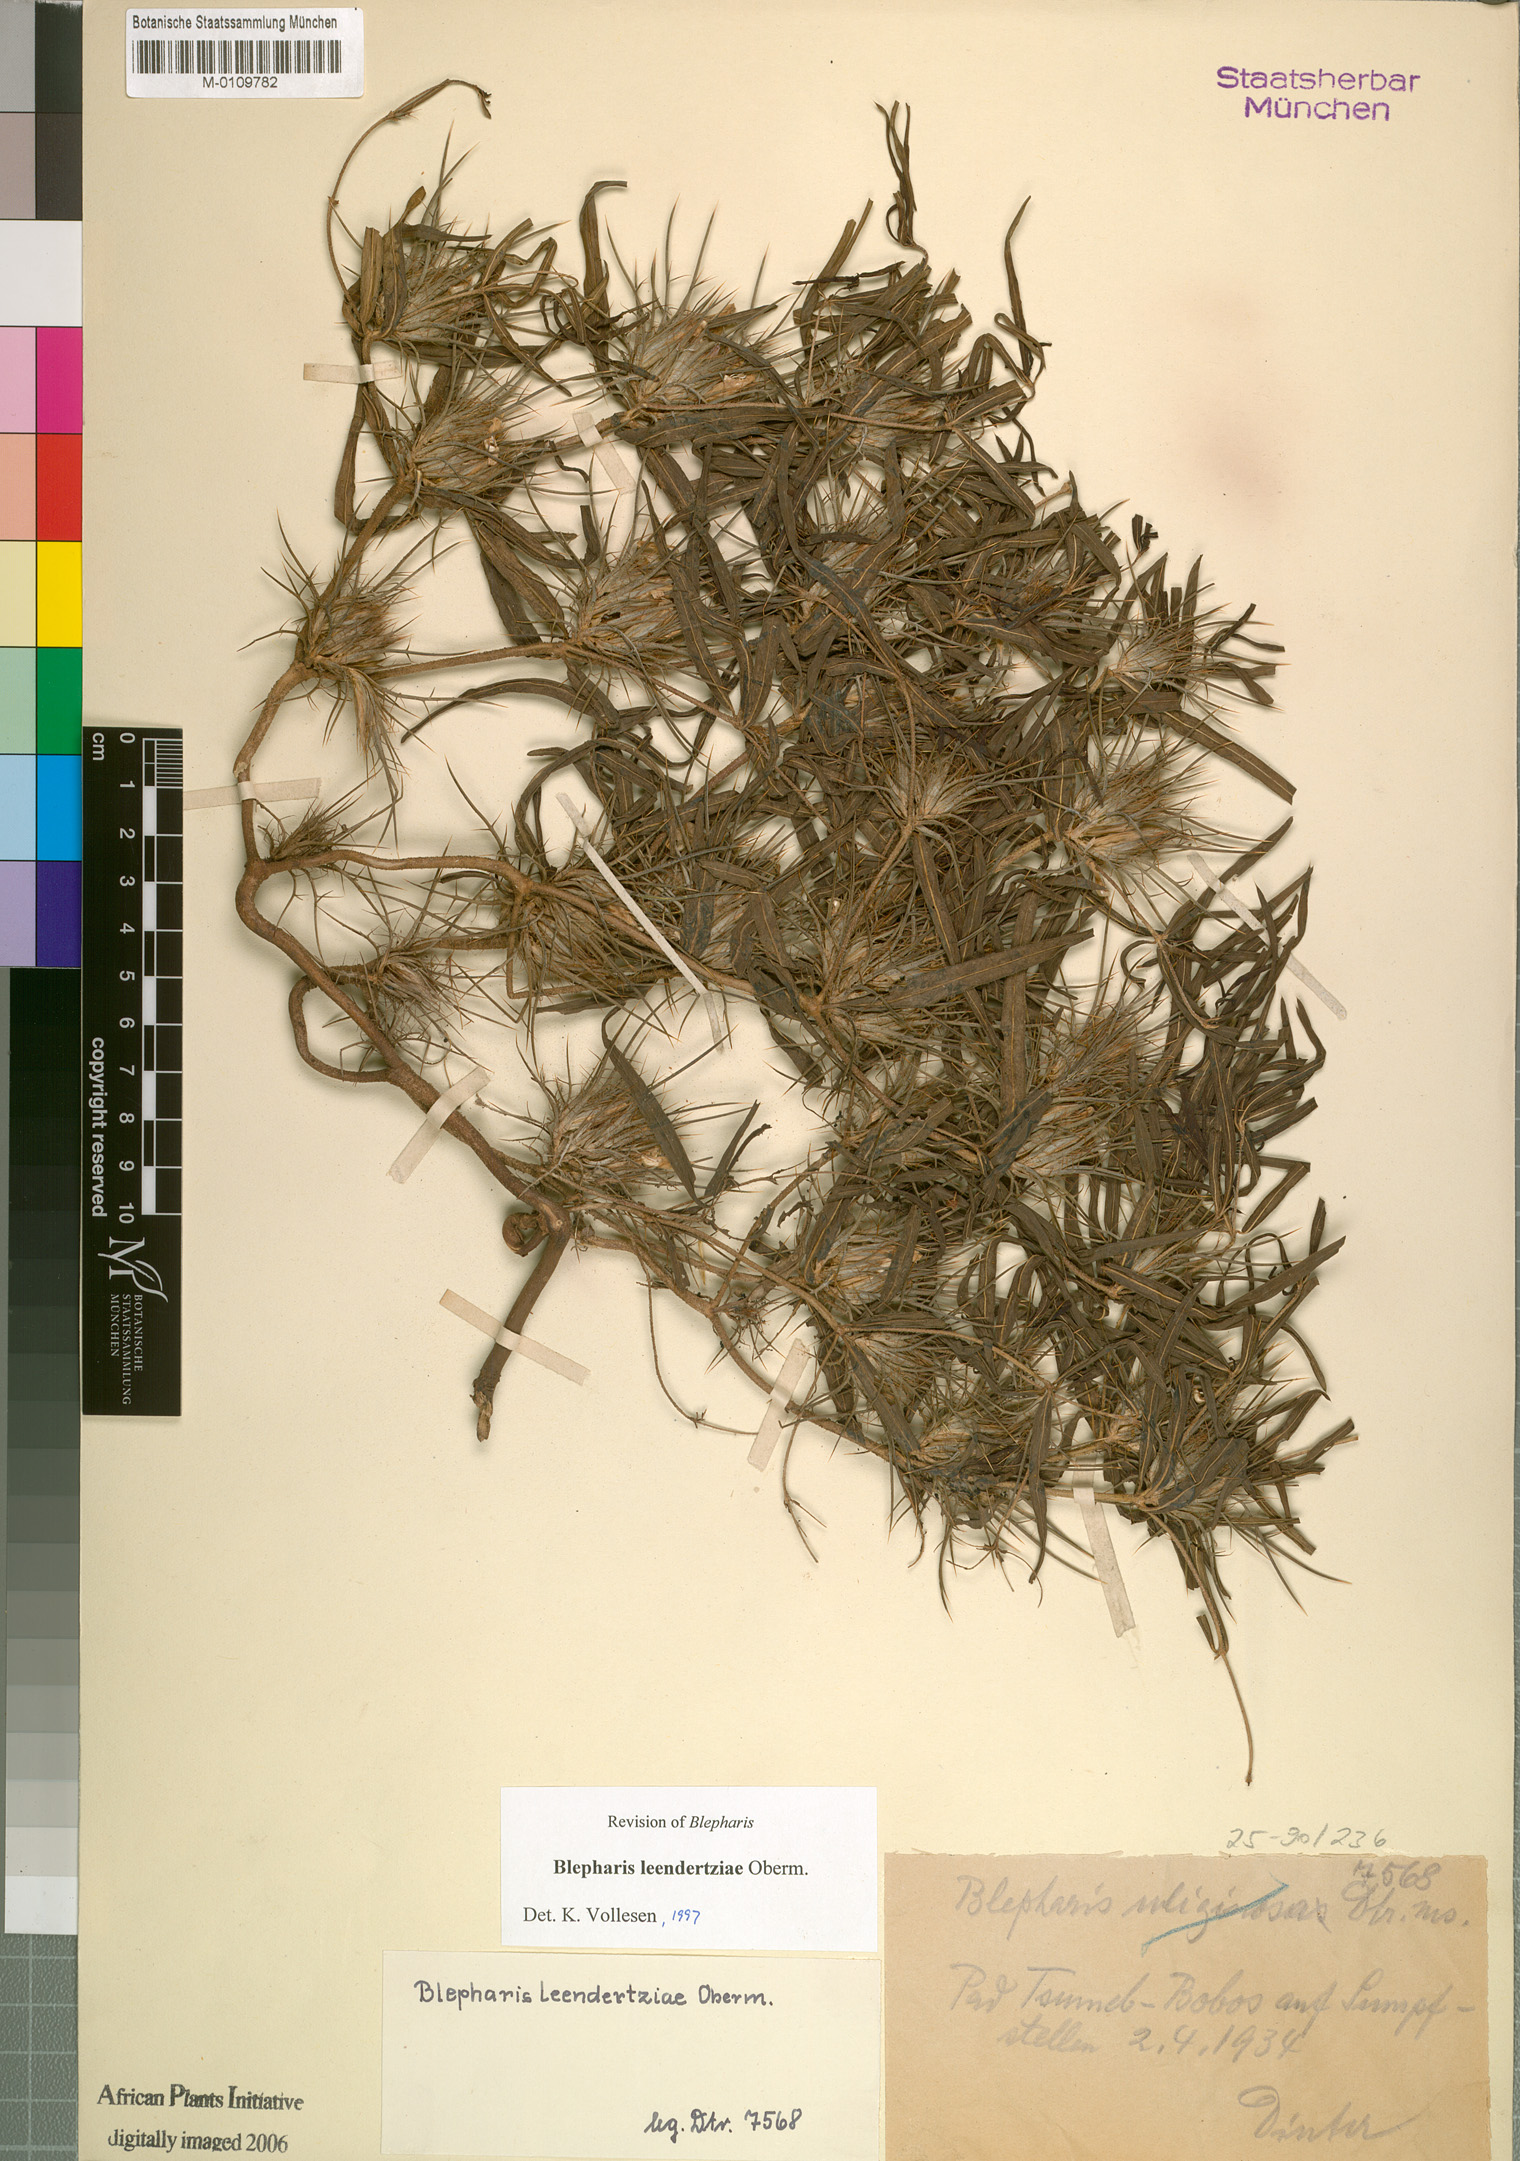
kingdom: Plantae
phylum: Tracheophyta
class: Magnoliopsida
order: Lamiales
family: Acanthaceae
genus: Blepharis
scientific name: Blepharis leendertziae
